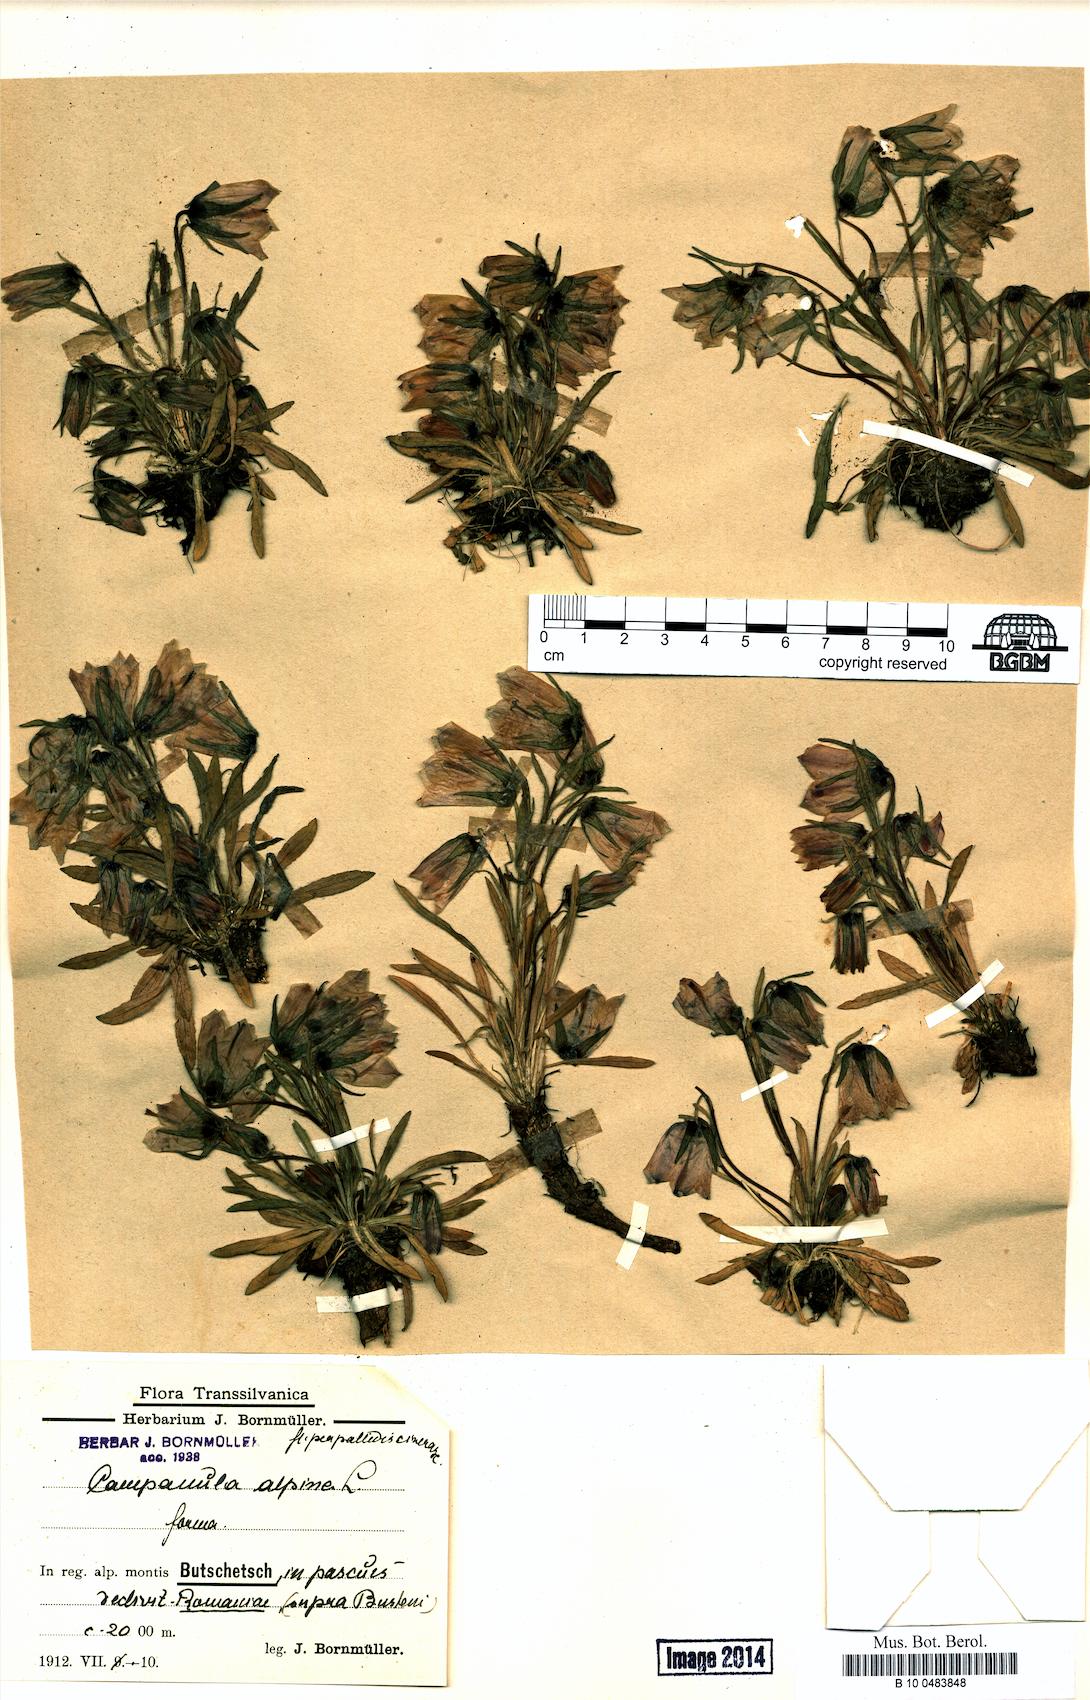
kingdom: Plantae
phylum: Tracheophyta
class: Magnoliopsida
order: Asterales
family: Campanulaceae
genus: Campanula
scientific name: Campanula alpina
